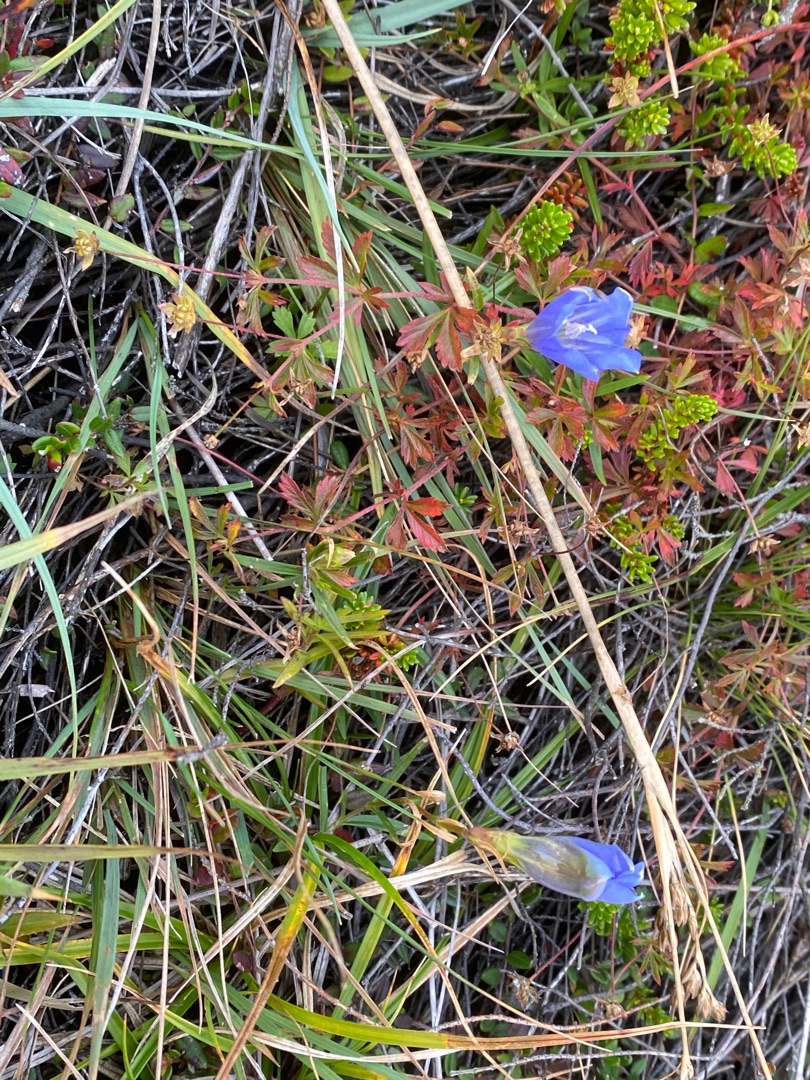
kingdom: Plantae
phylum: Tracheophyta
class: Magnoliopsida
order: Gentianales
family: Gentianaceae
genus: Gentiana
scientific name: Gentiana pneumonanthe
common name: Klokke-ensian
